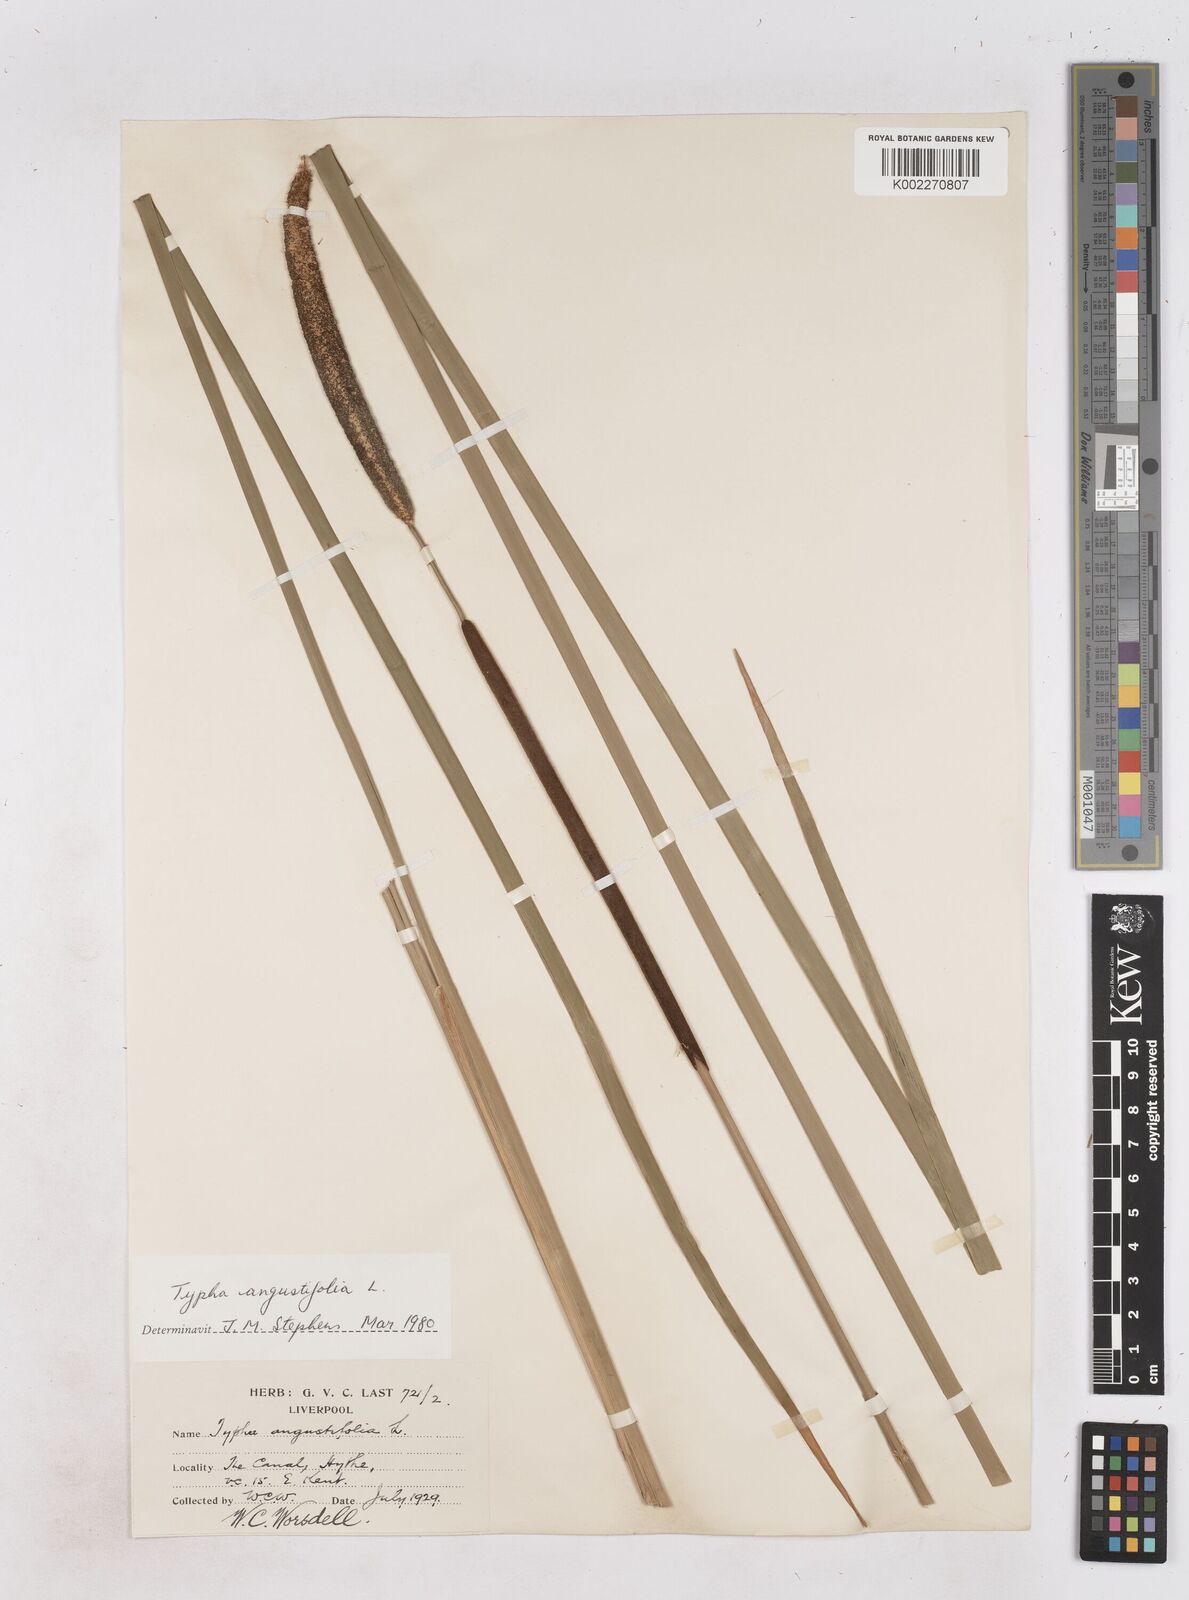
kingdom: Plantae
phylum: Tracheophyta
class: Liliopsida
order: Poales
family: Typhaceae
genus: Typha
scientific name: Typha angustifolia
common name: Lesser bulrush
